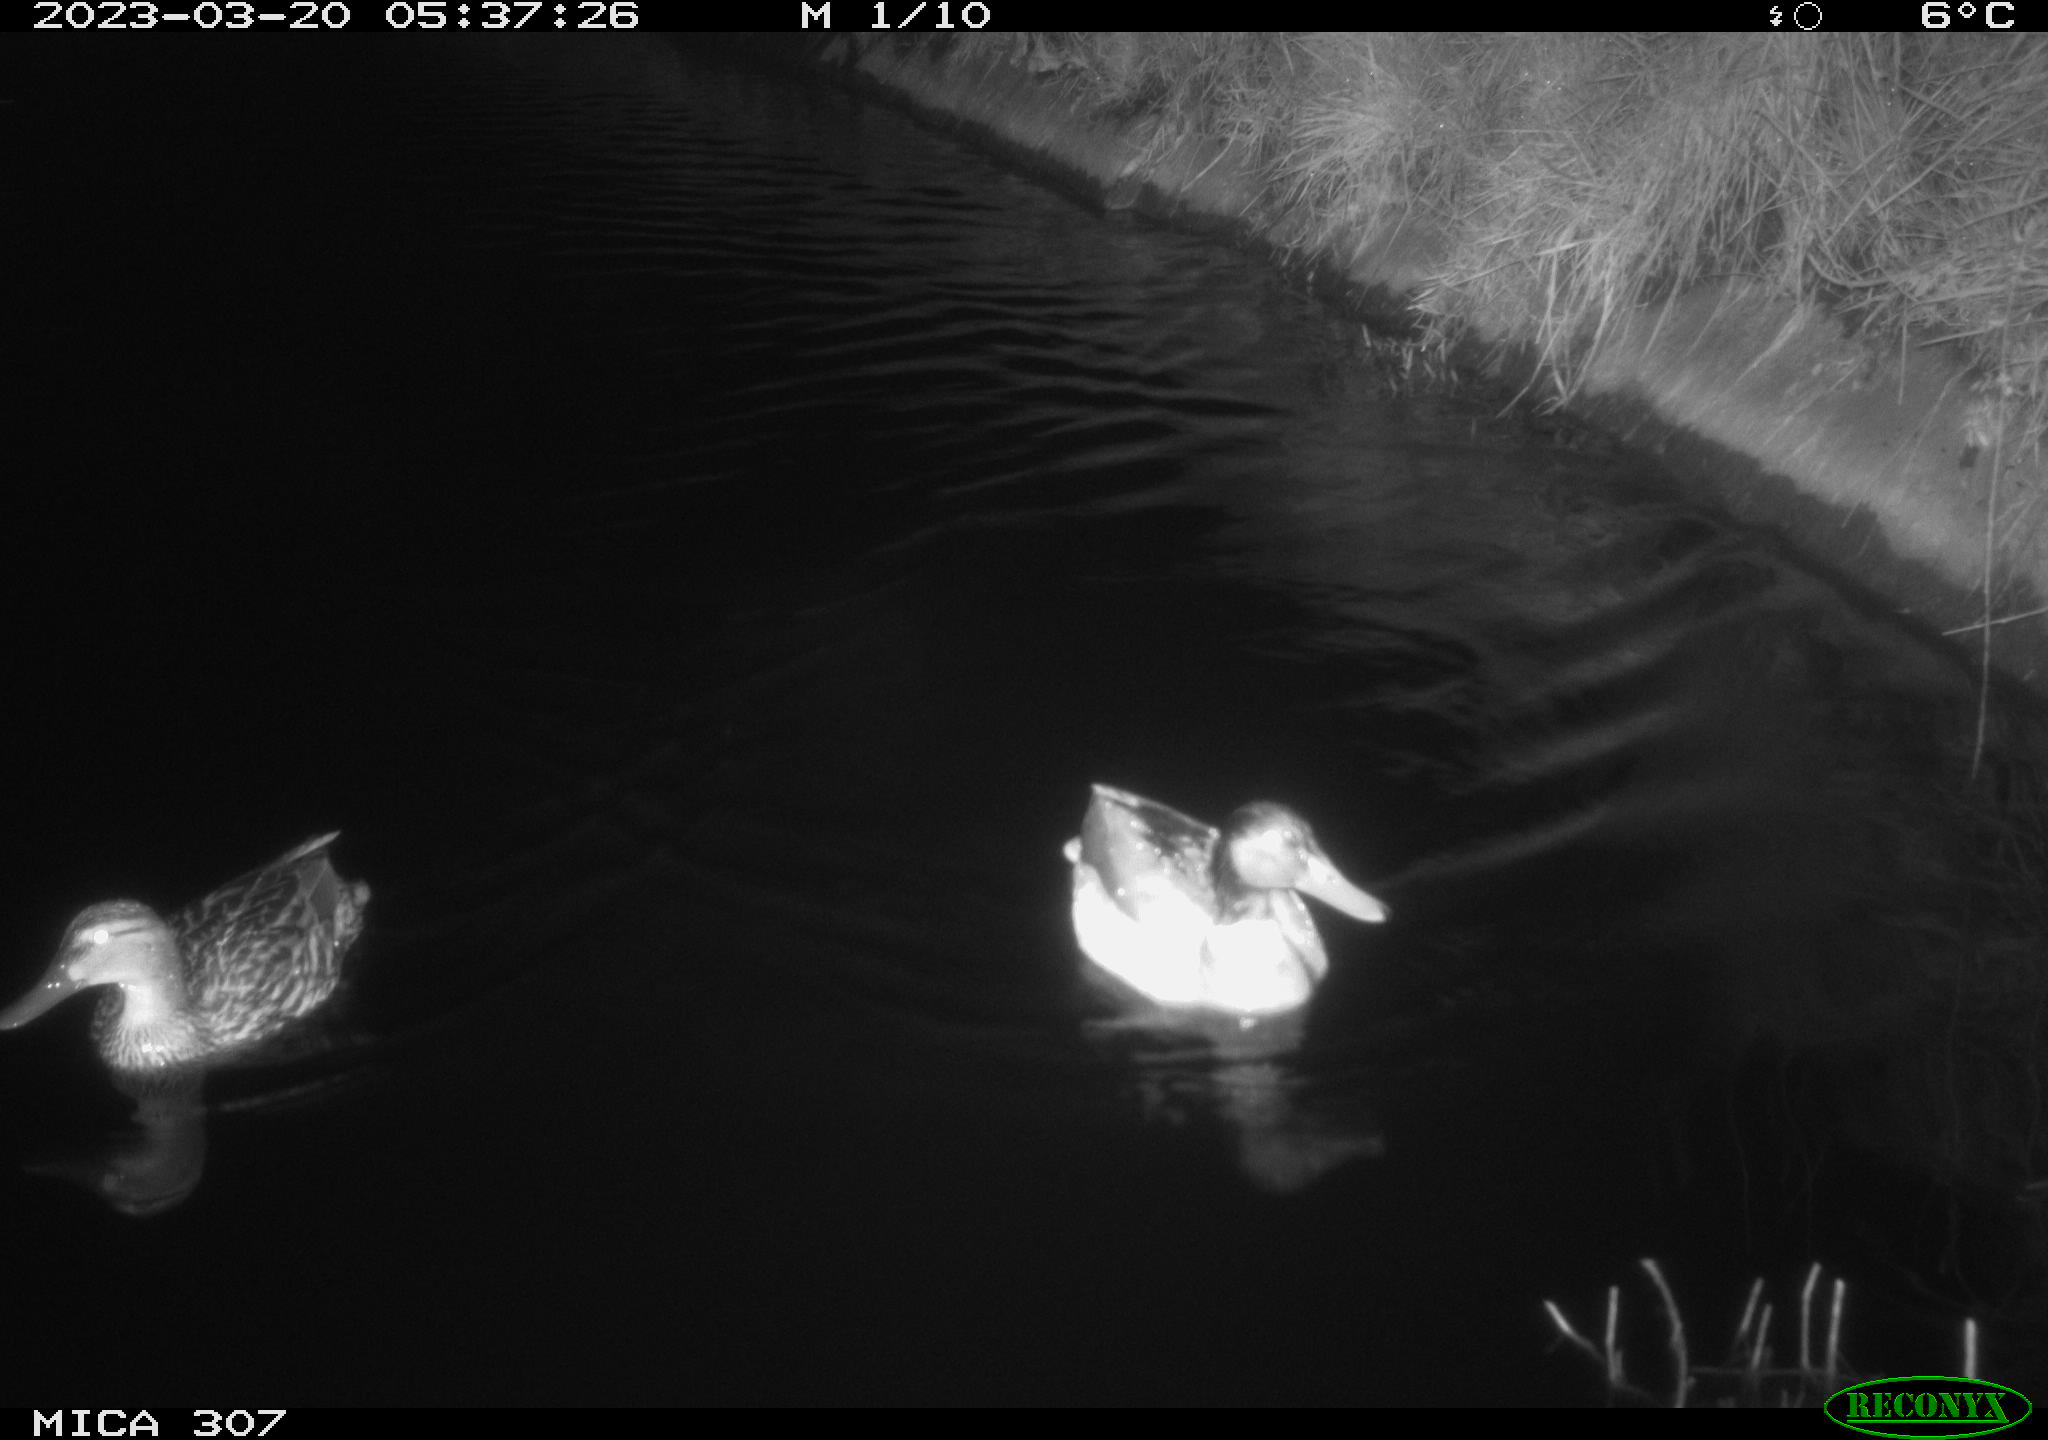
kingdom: Animalia
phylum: Chordata
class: Aves
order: Anseriformes
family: Anatidae
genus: Anas
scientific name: Anas
